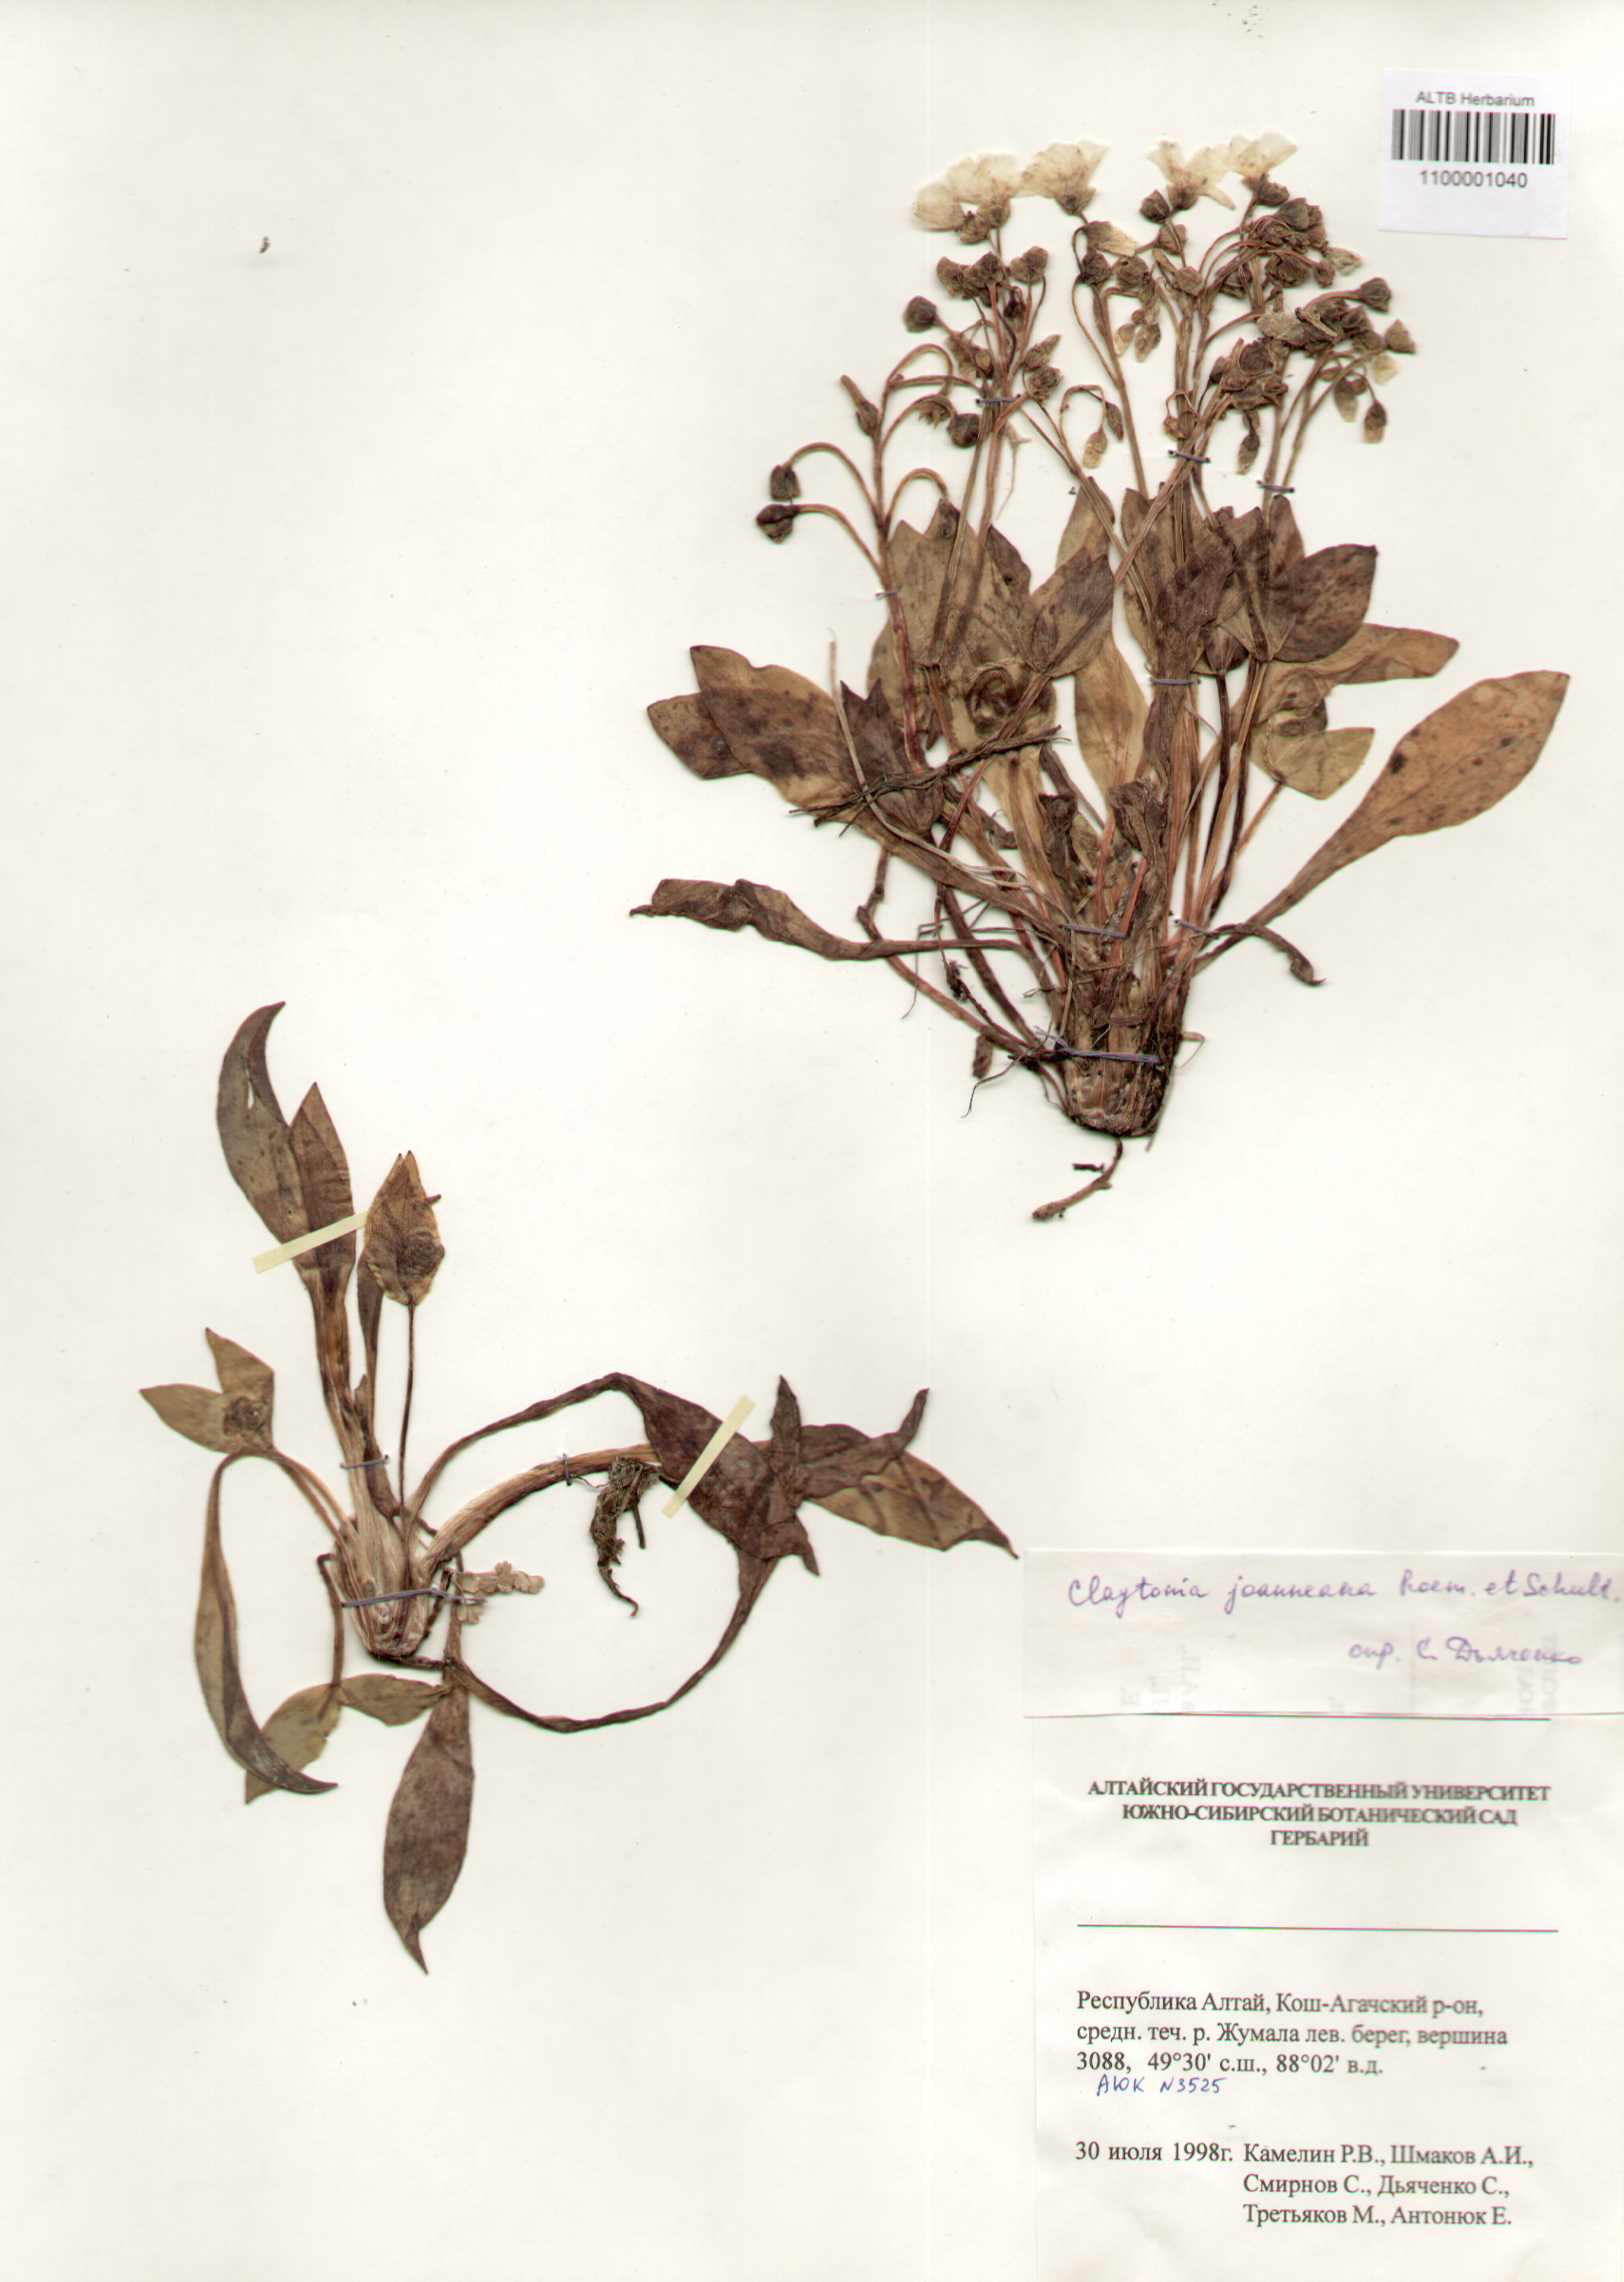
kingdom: Plantae
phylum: Tracheophyta
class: Magnoliopsida
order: Caryophyllales
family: Montiaceae
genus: Claytonia
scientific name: Claytonia joanneana
